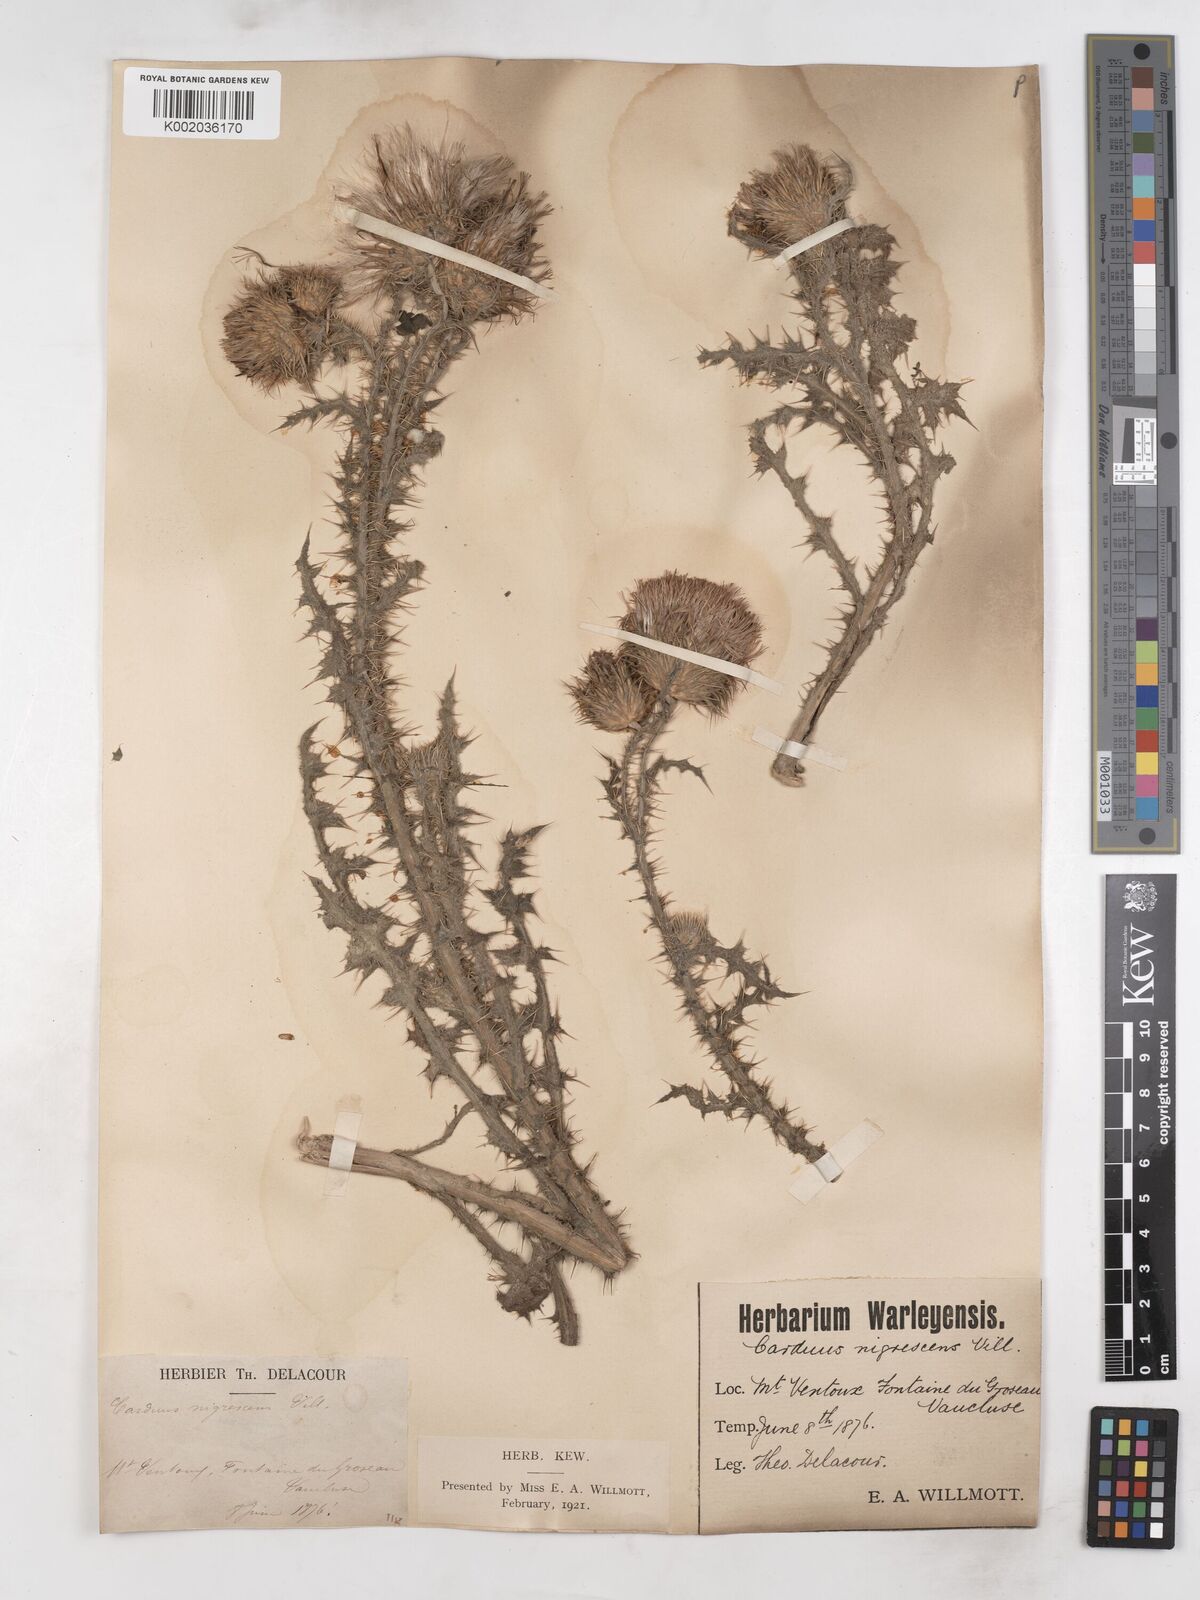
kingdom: Plantae
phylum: Tracheophyta
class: Magnoliopsida
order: Asterales
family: Asteraceae
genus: Carduus
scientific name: Carduus nigrescens
